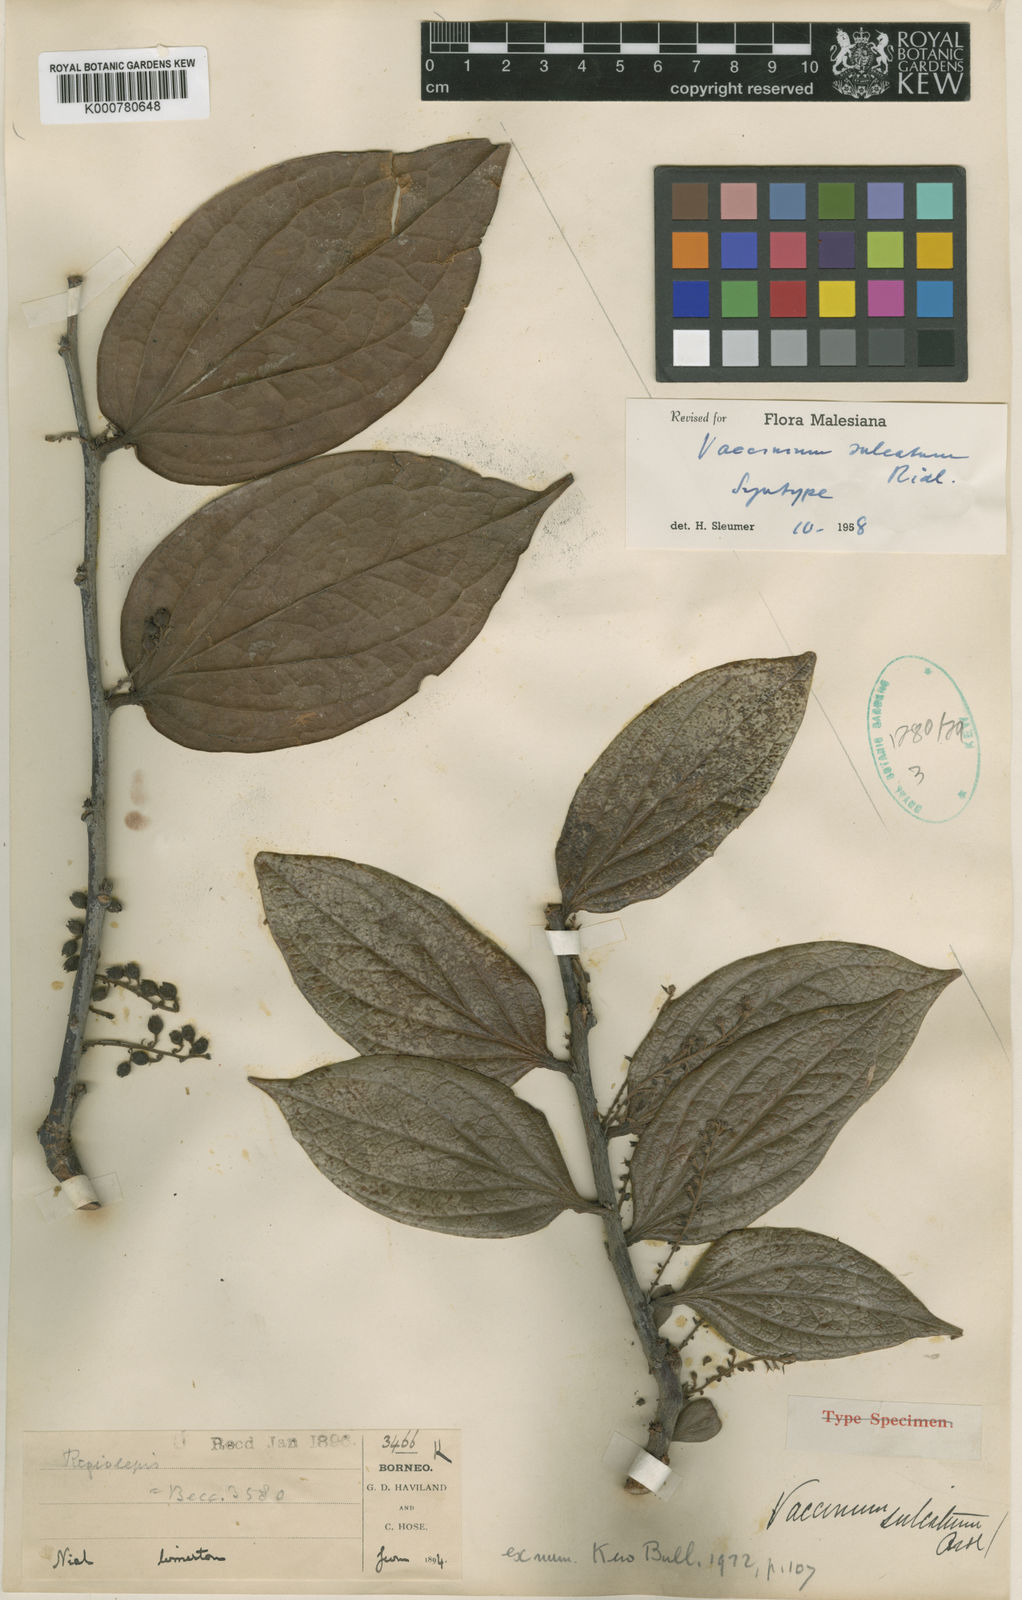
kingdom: Plantae
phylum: Tracheophyta
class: Magnoliopsida
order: Ericales
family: Ericaceae
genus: Rigiolepis
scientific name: Rigiolepis sulcata
